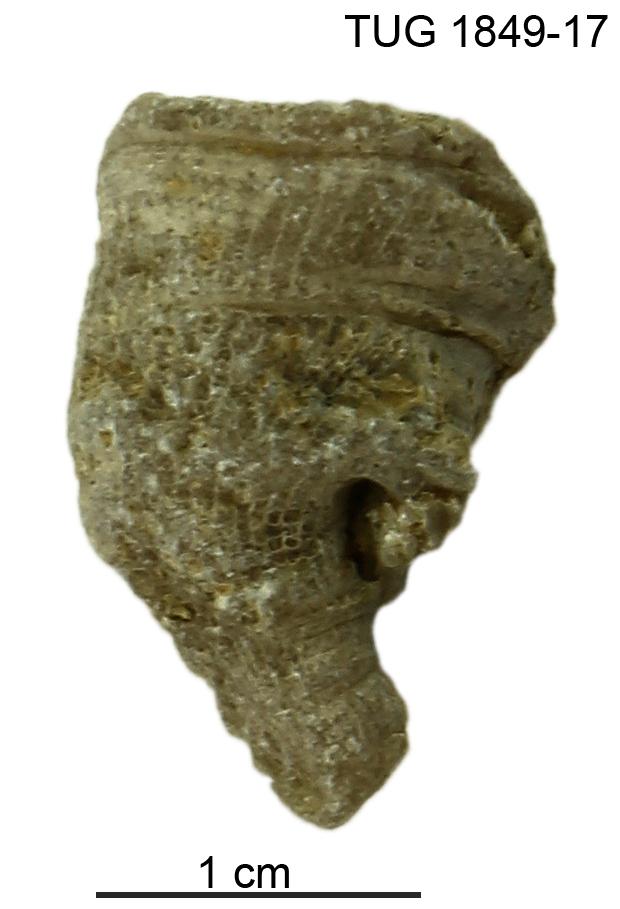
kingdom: Animalia
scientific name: Animalia
